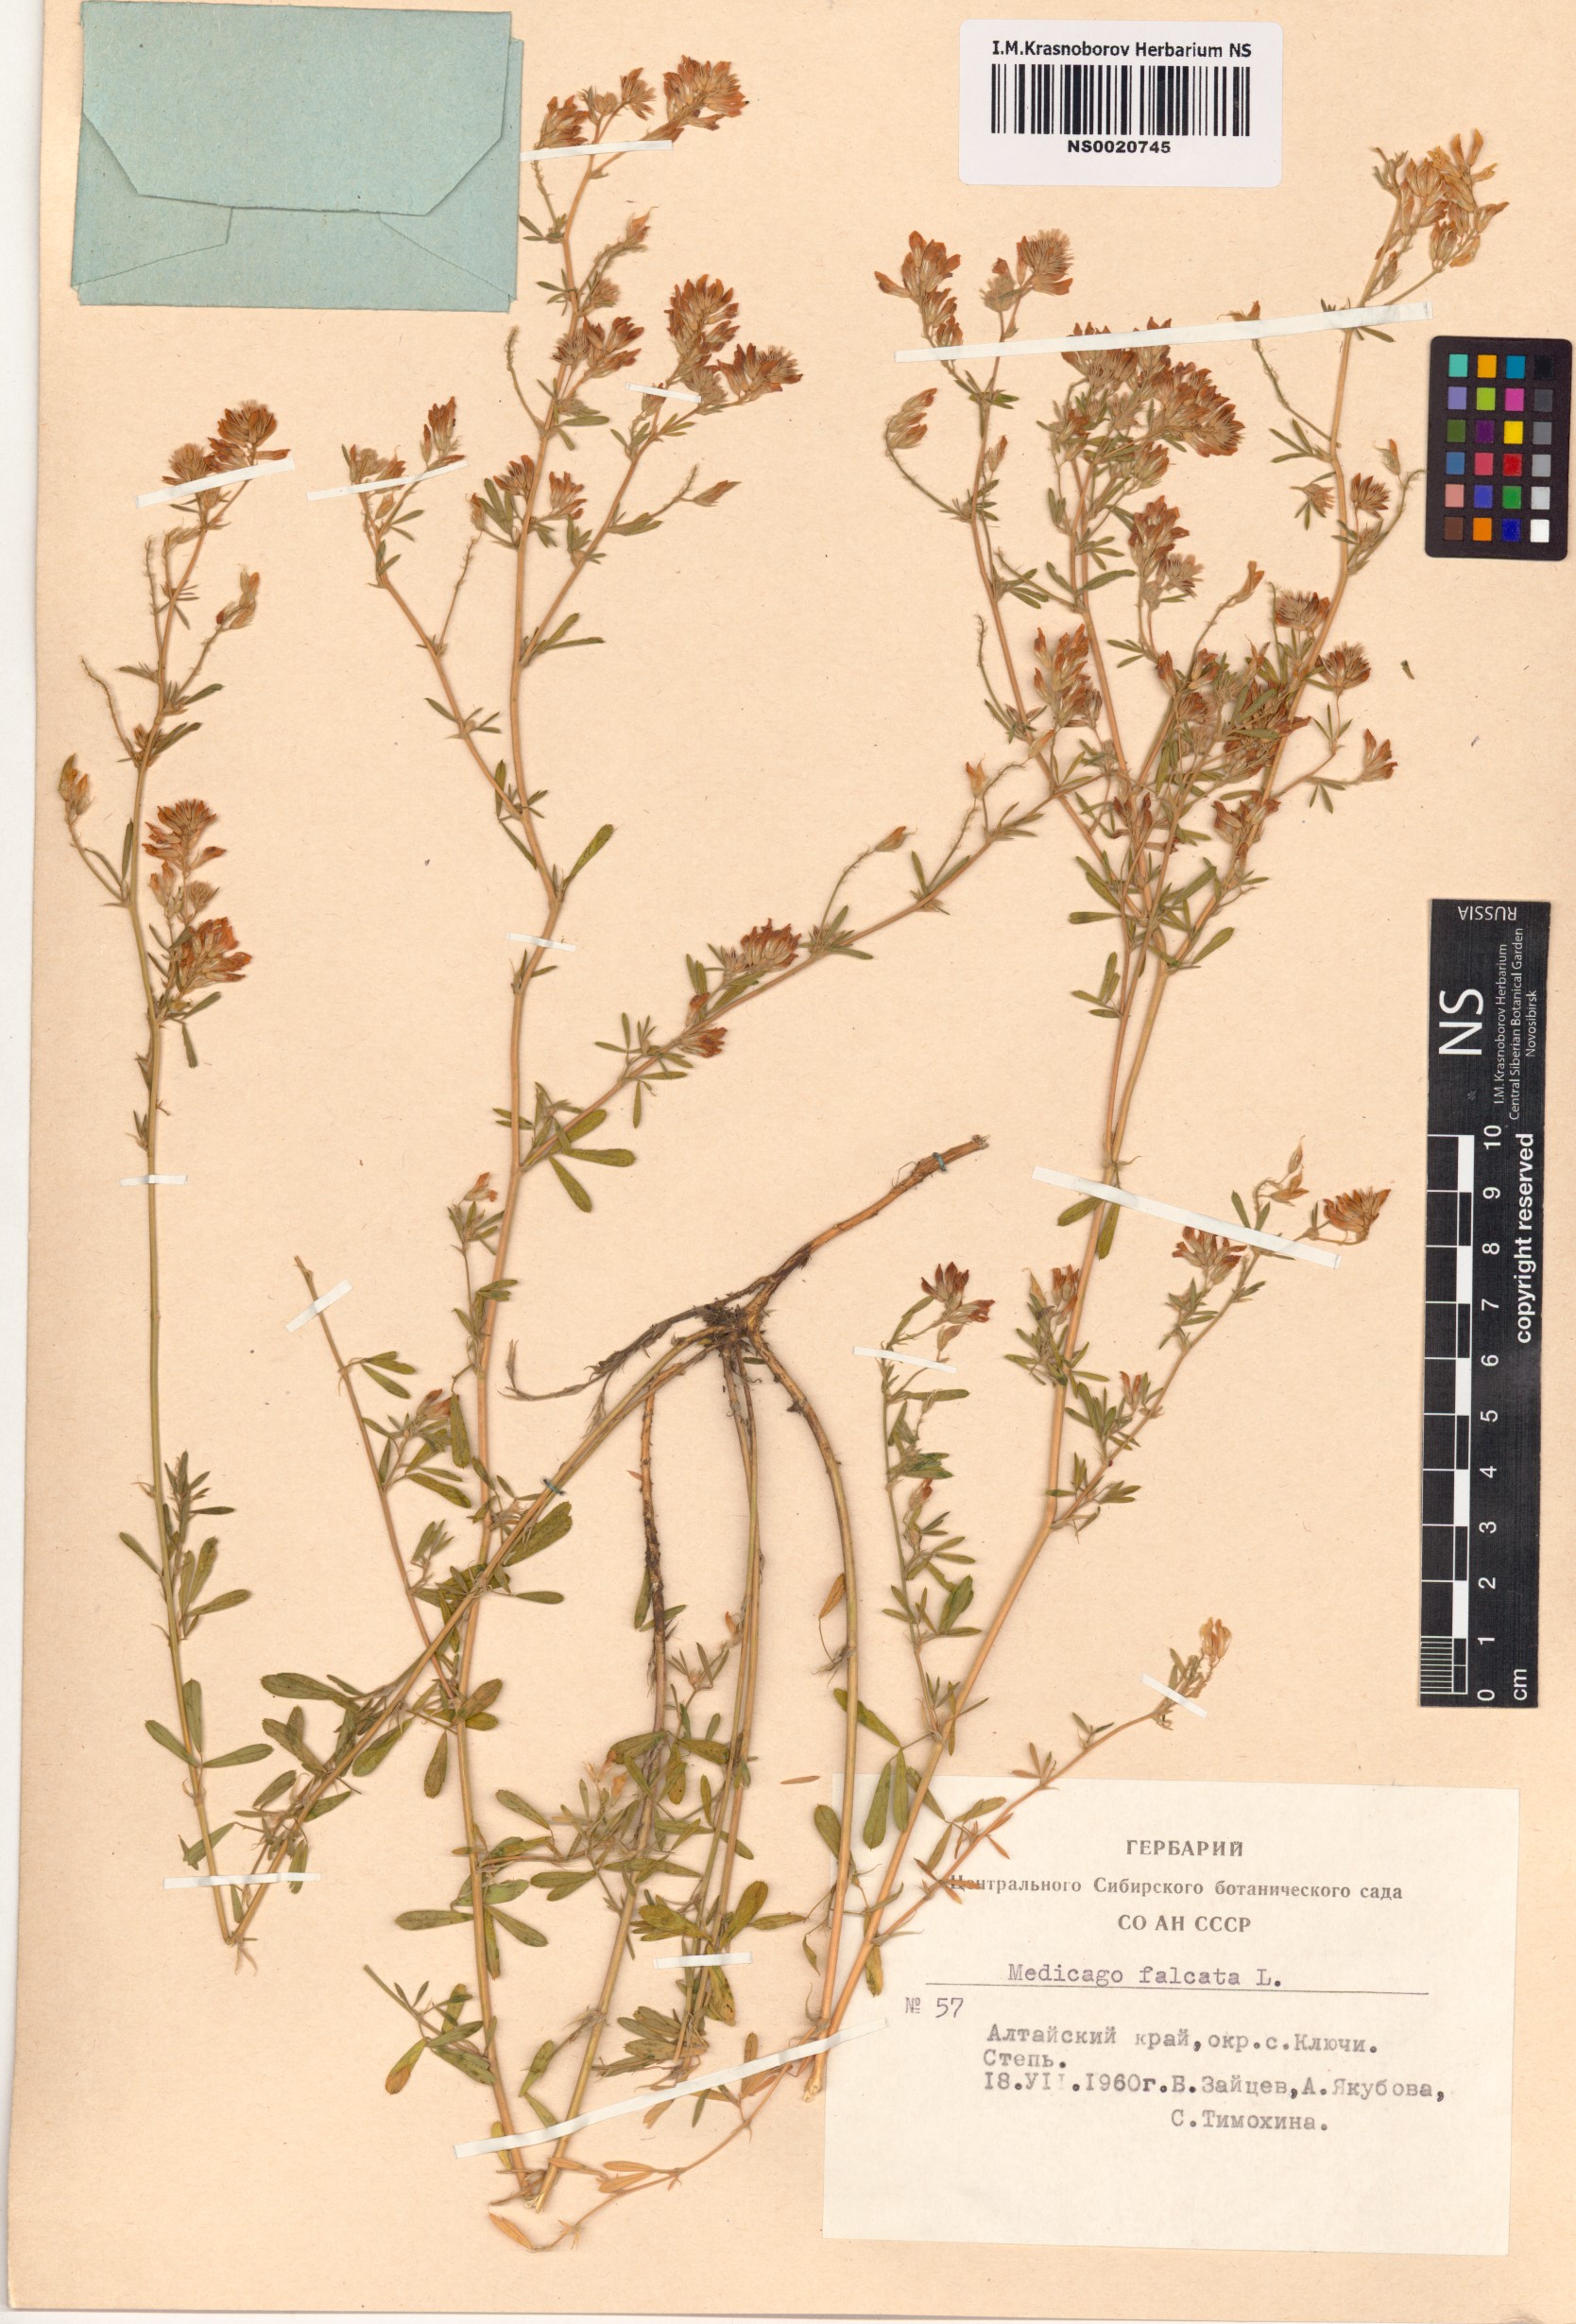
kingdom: Plantae
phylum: Tracheophyta
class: Magnoliopsida
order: Fabales
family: Fabaceae
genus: Medicago
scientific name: Medicago falcata
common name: Sickle medick
